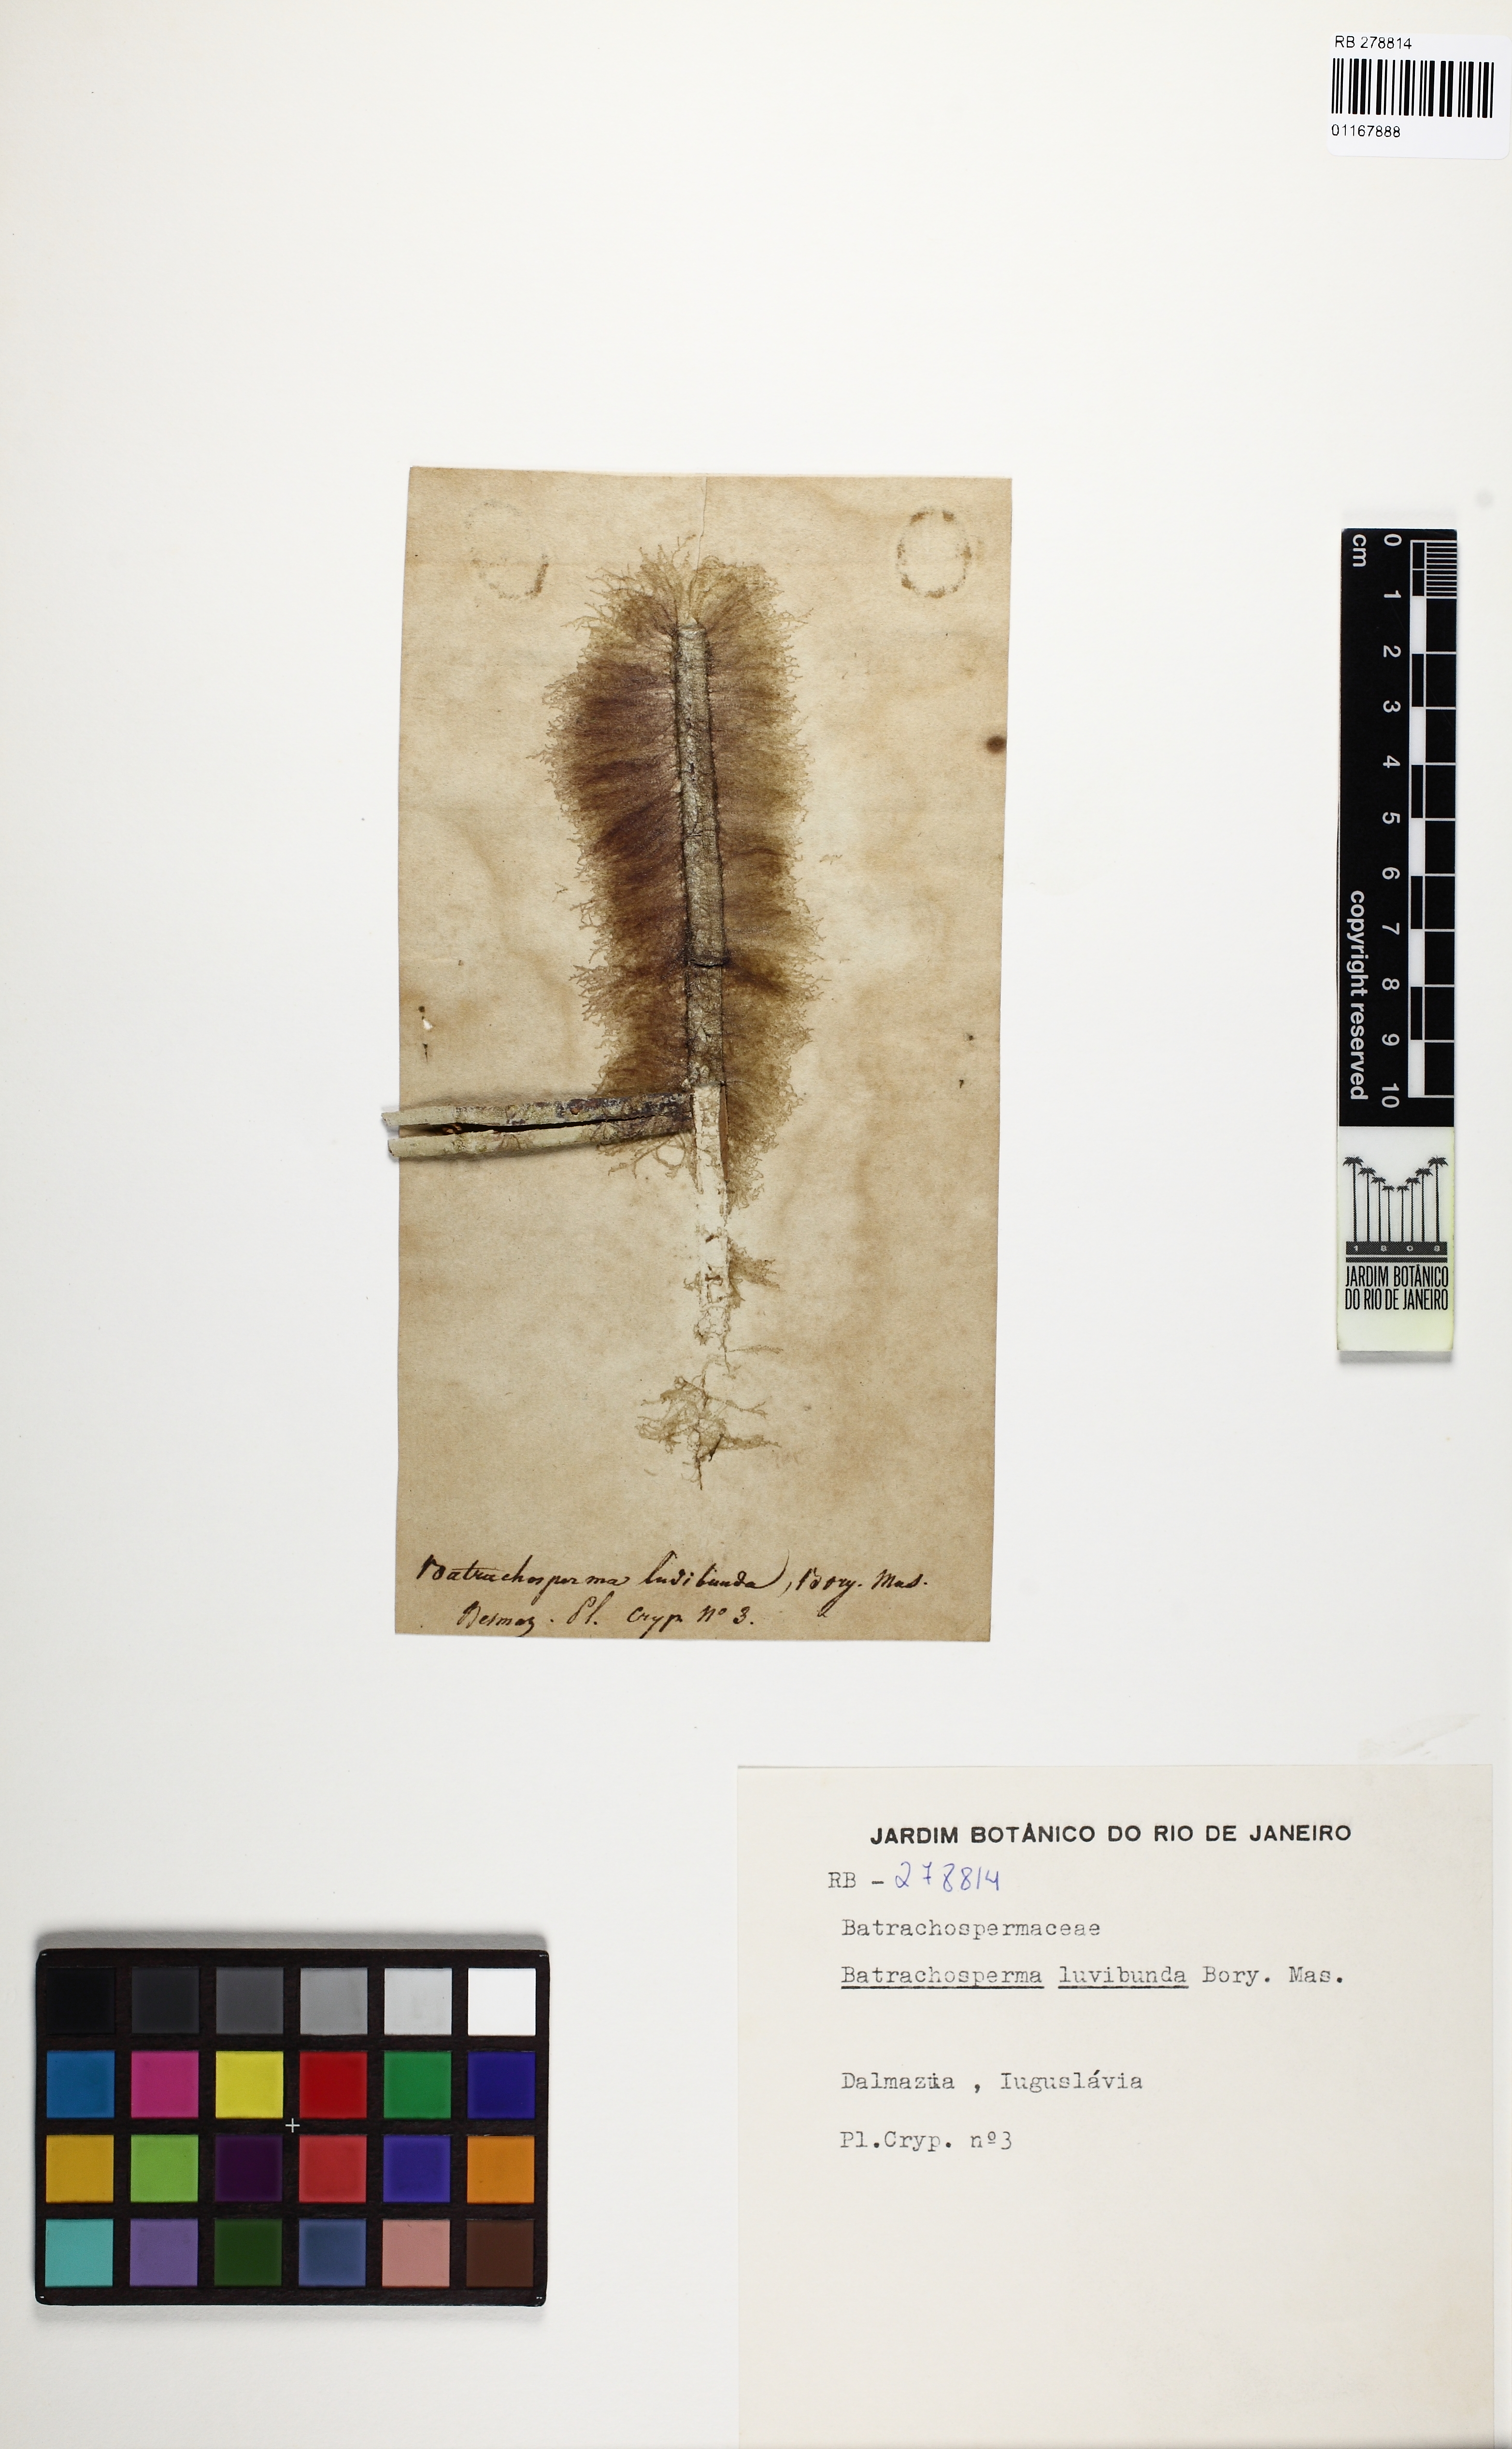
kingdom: Plantae
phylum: Rhodophyta
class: Florideophyceae
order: Batrachospermales
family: Batrachospermaceae
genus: Batrachospermum
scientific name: Batrachospermum
